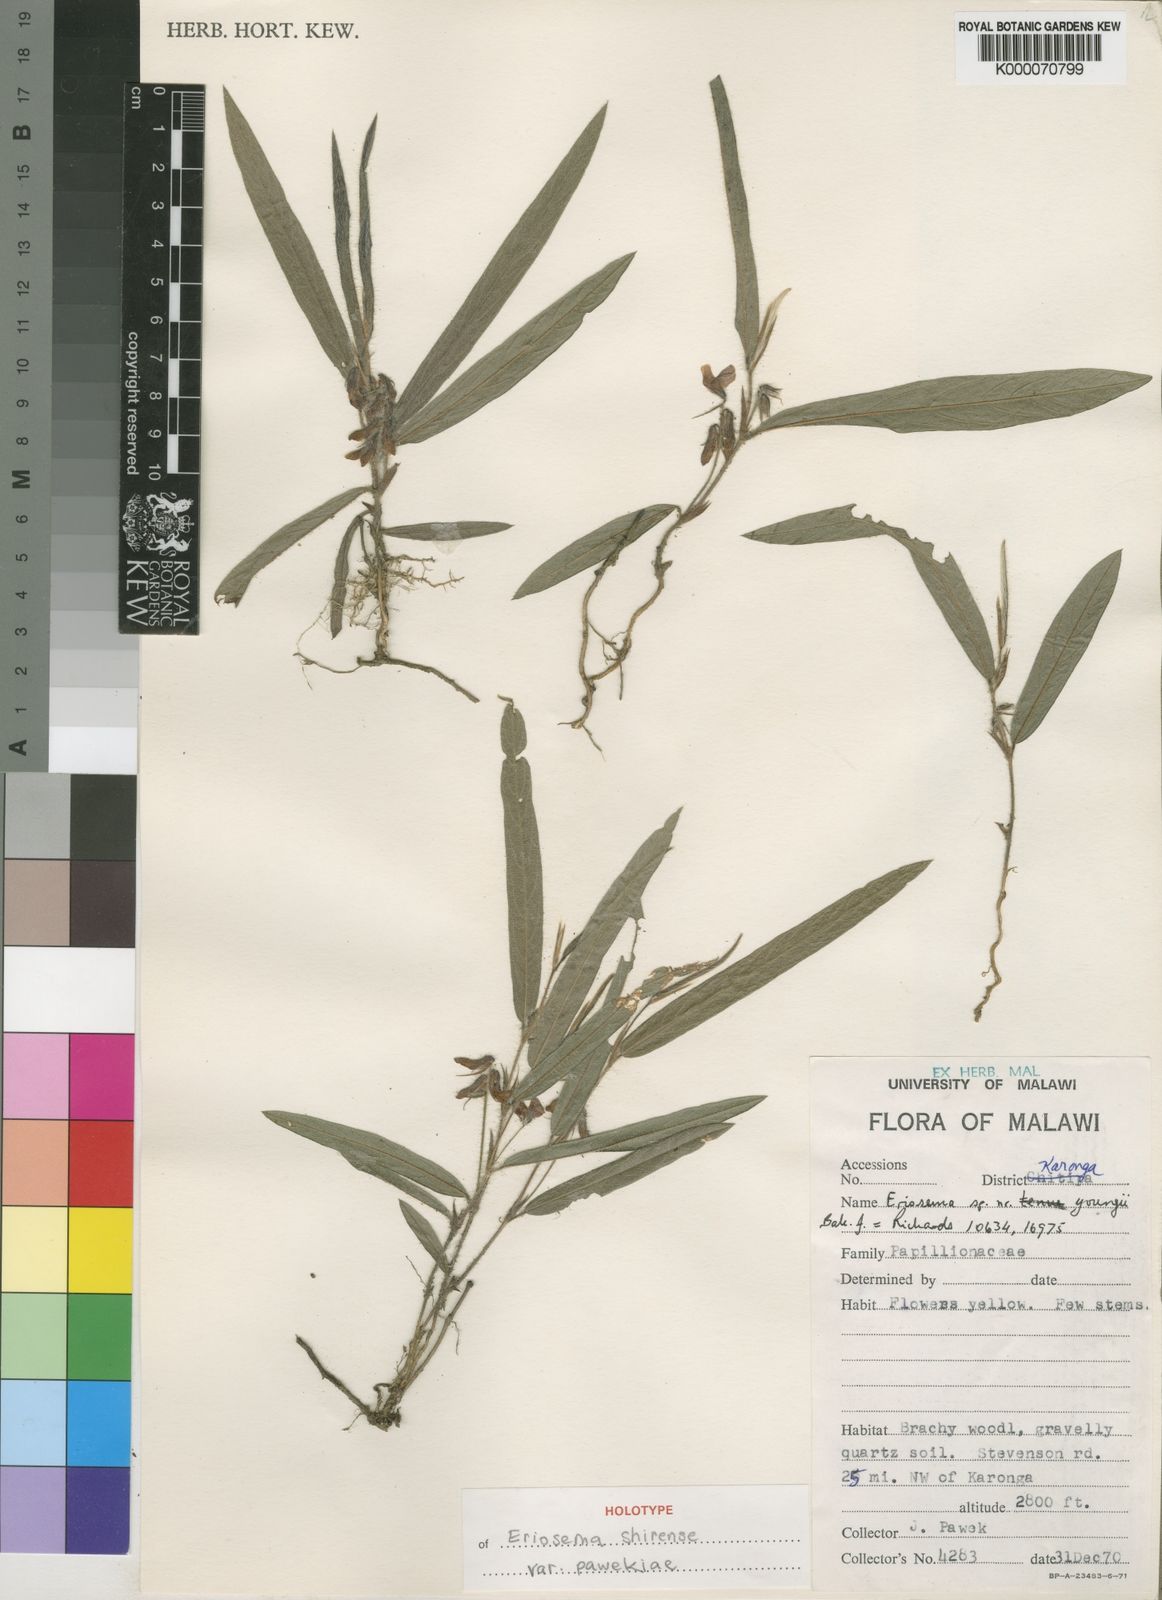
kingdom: Plantae
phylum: Tracheophyta
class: Magnoliopsida
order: Fabales
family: Fabaceae
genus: Eriosema
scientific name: Eriosema shirense
